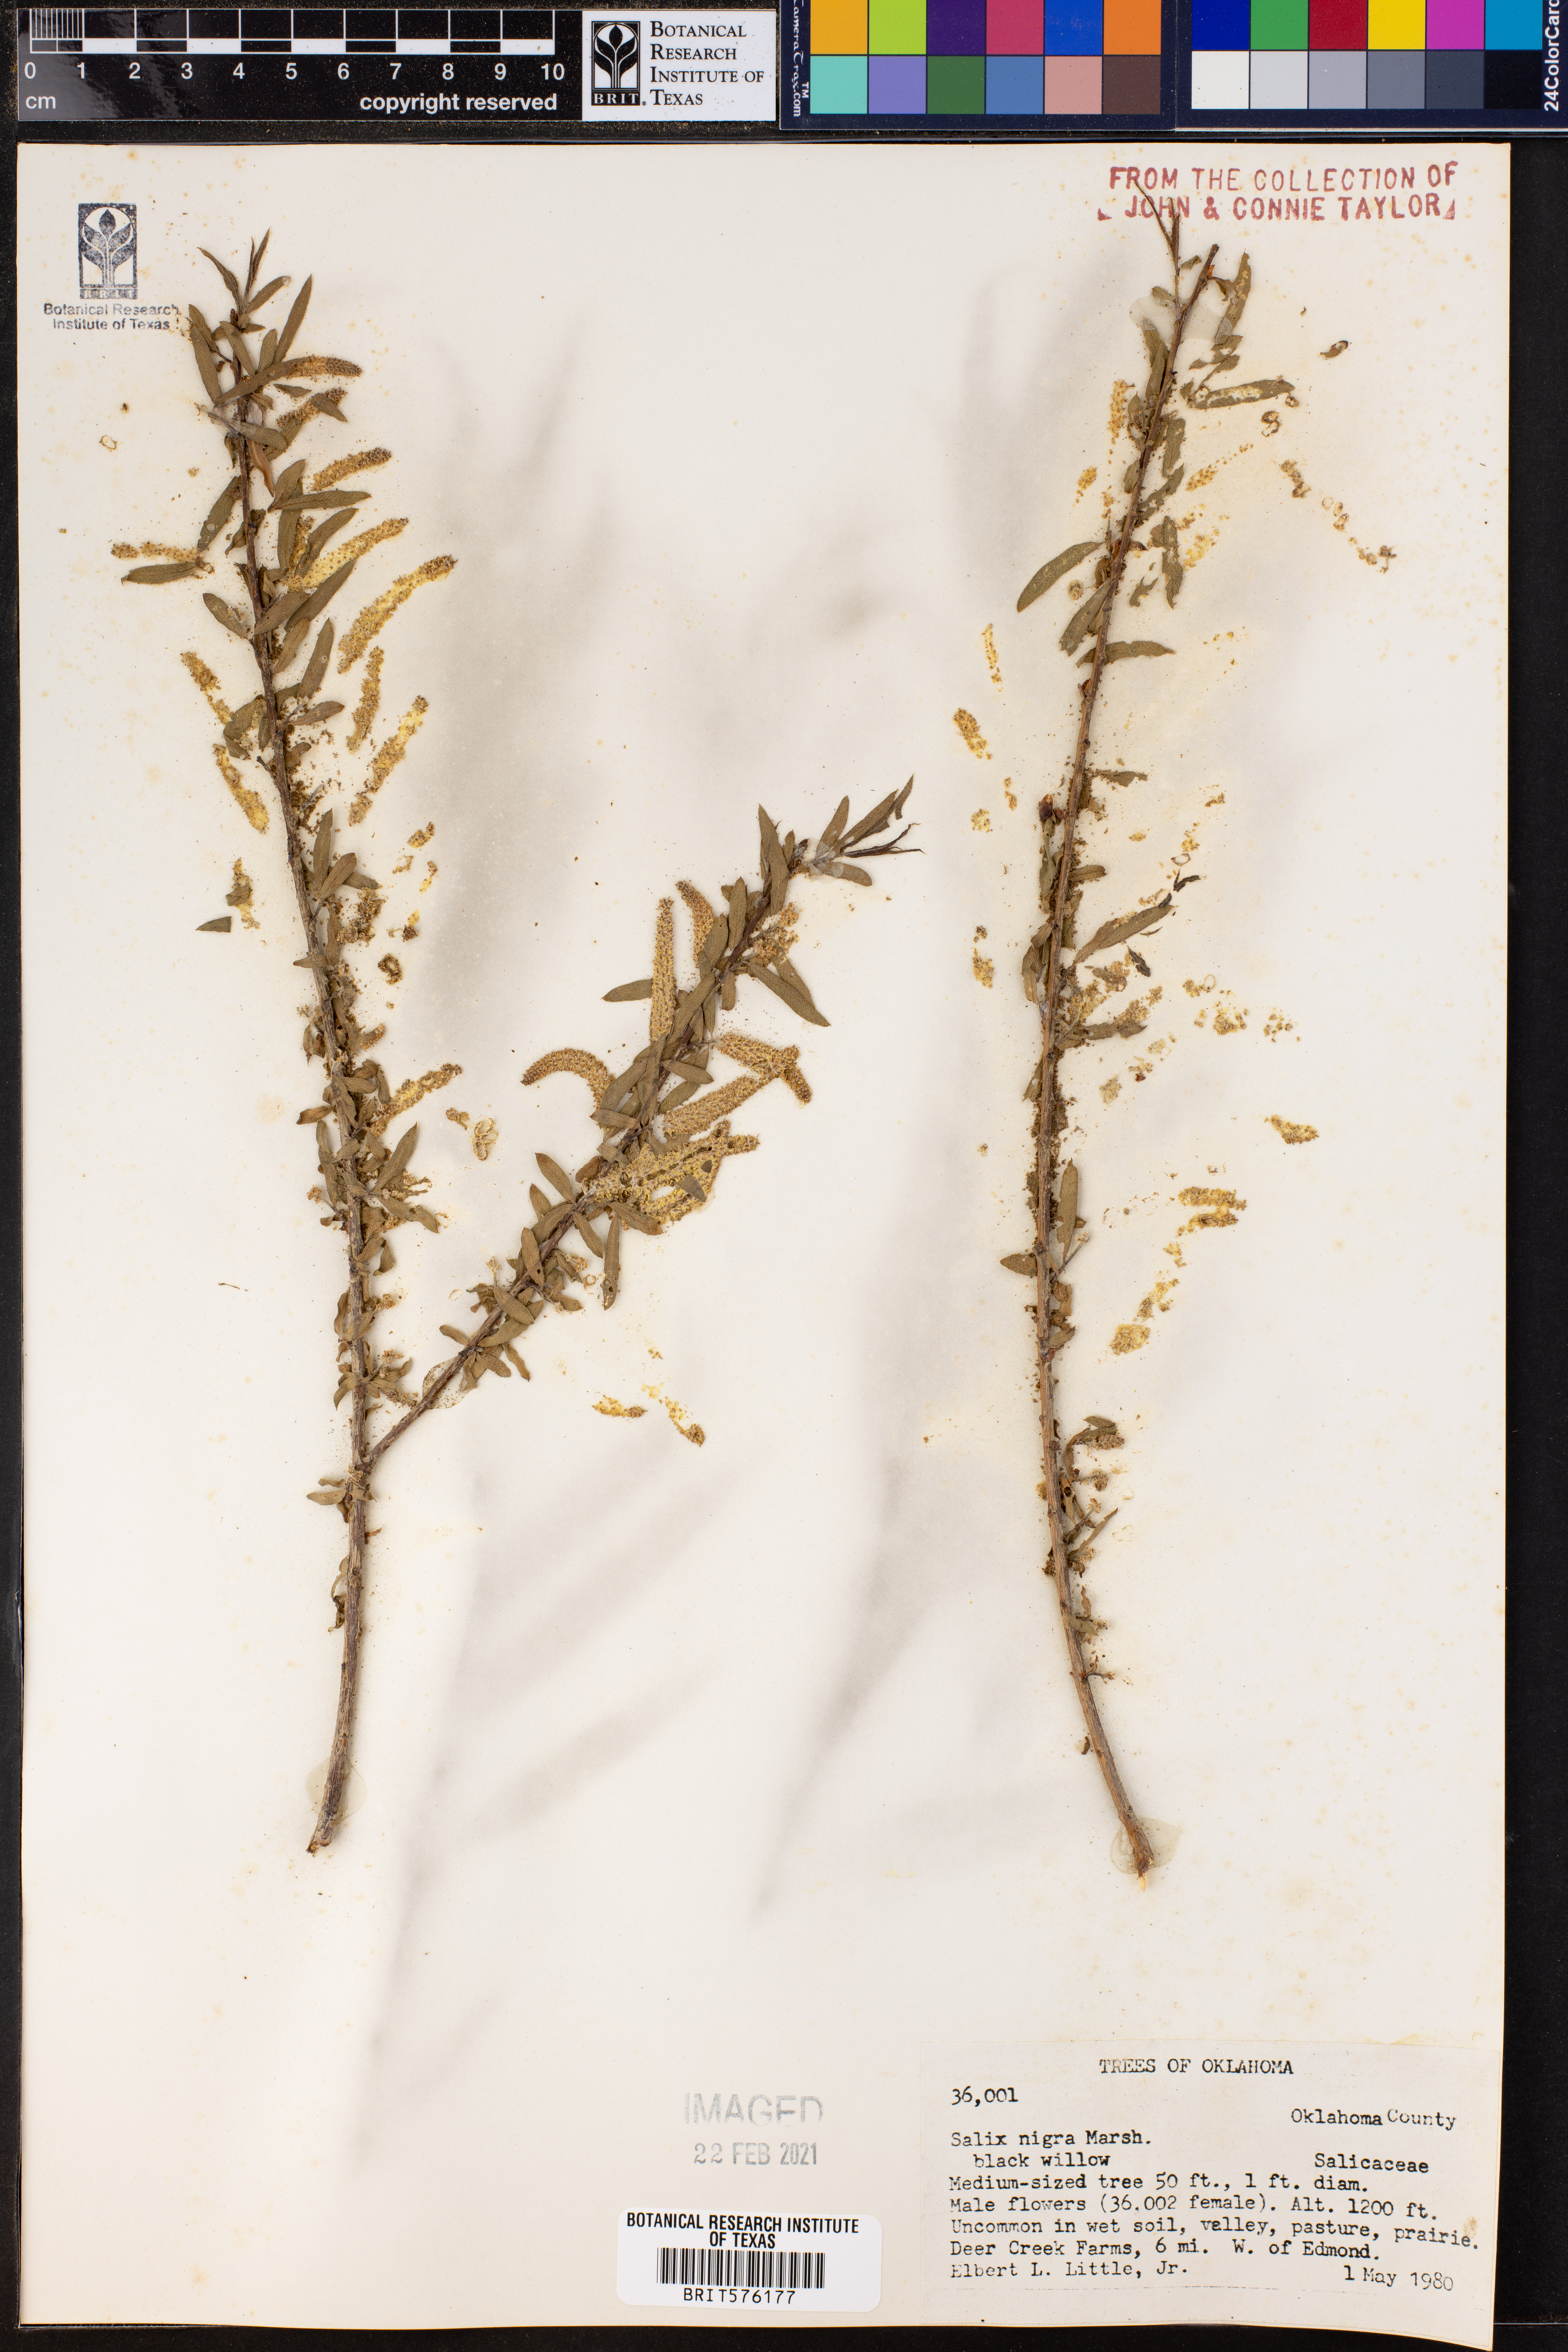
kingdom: Plantae
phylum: Tracheophyta
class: Magnoliopsida
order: Malpighiales
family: Salicaceae
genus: Salix
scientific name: Salix nigra
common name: Black willow
